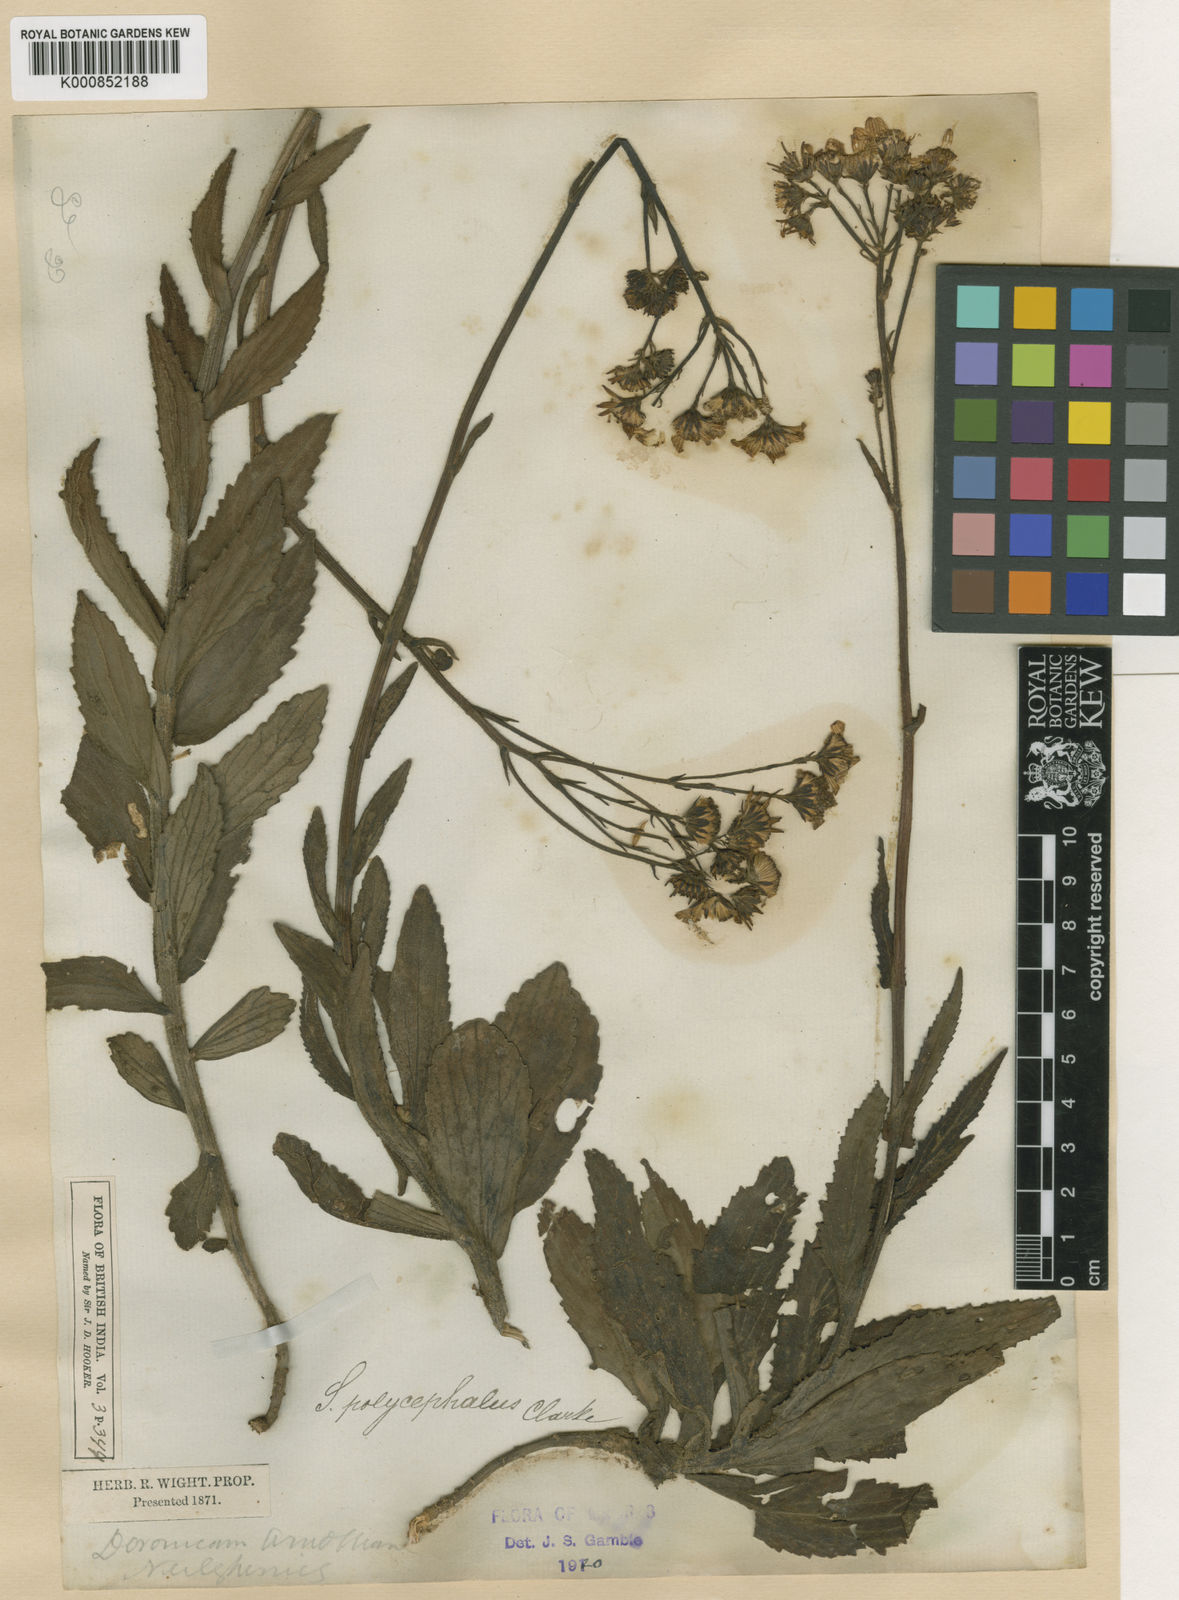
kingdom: Plantae
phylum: Tracheophyta
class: Magnoliopsida
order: Asterales
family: Asteraceae
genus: Senecio
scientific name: Senecio multiceps
